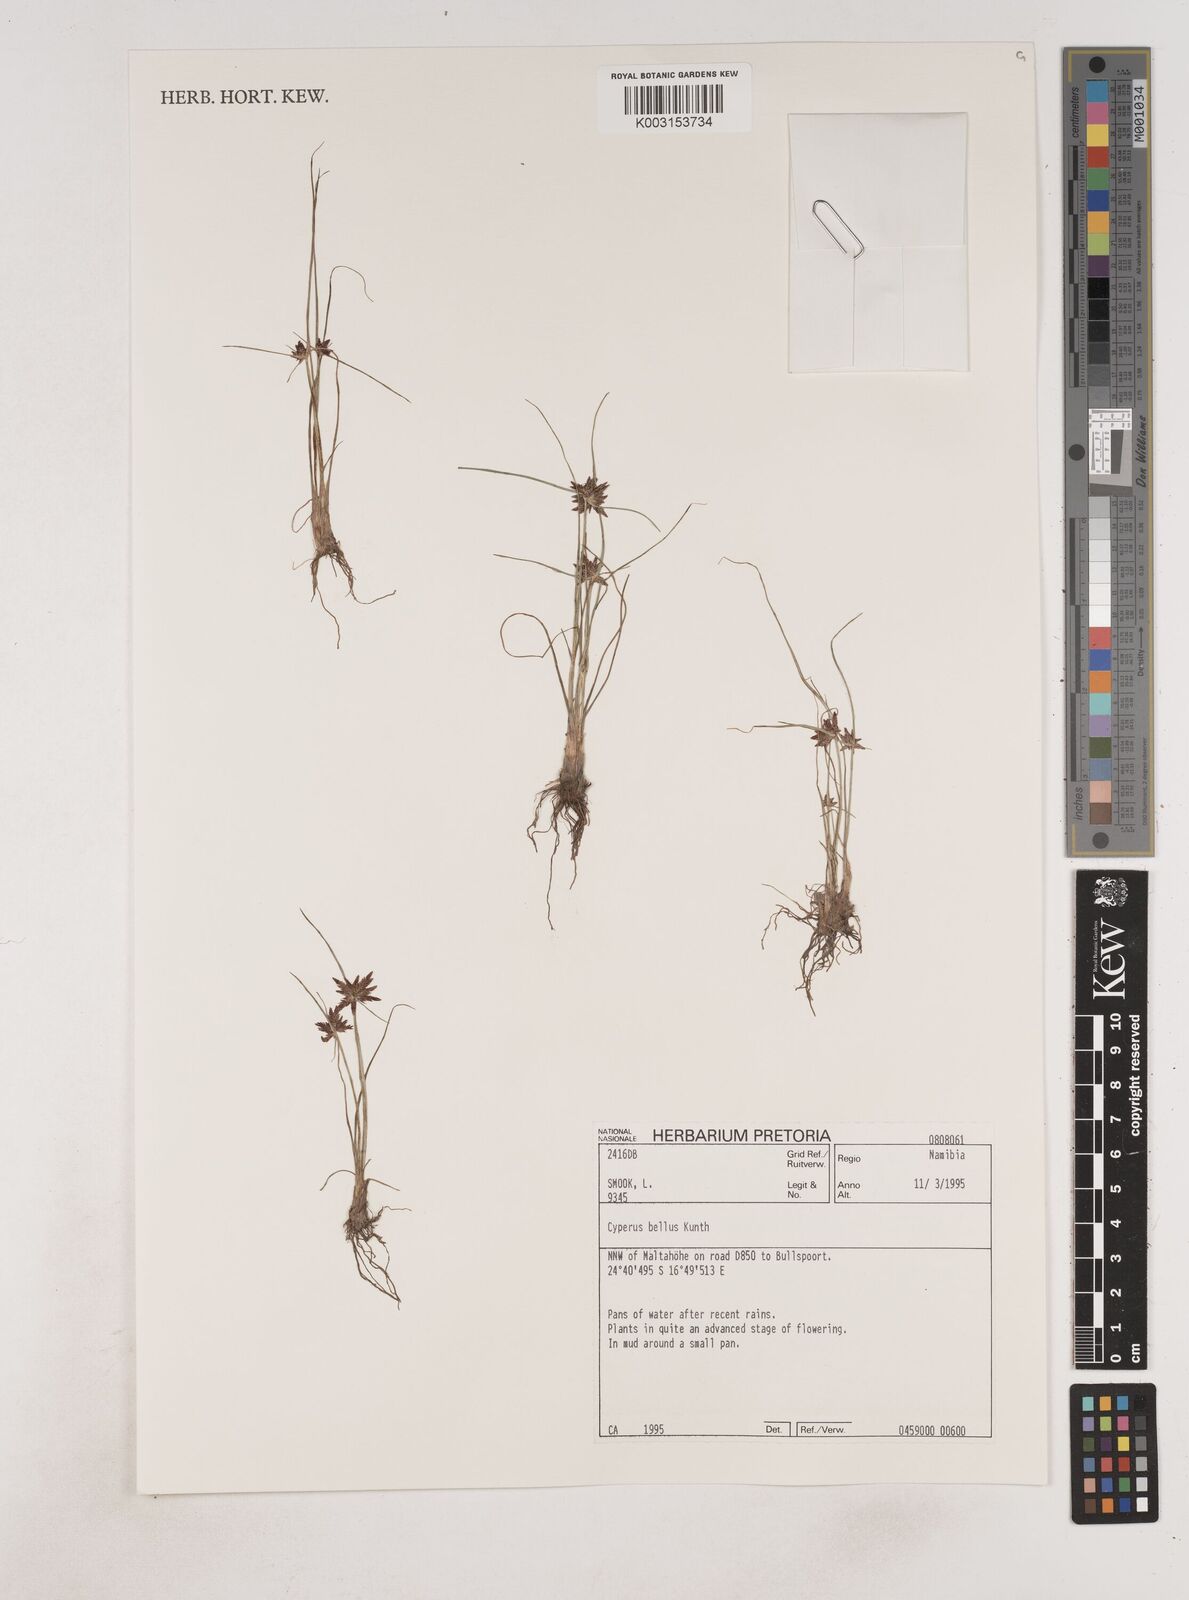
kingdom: Plantae
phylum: Tracheophyta
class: Liliopsida
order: Poales
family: Cyperaceae
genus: Cyperus
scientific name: Cyperus bellus
